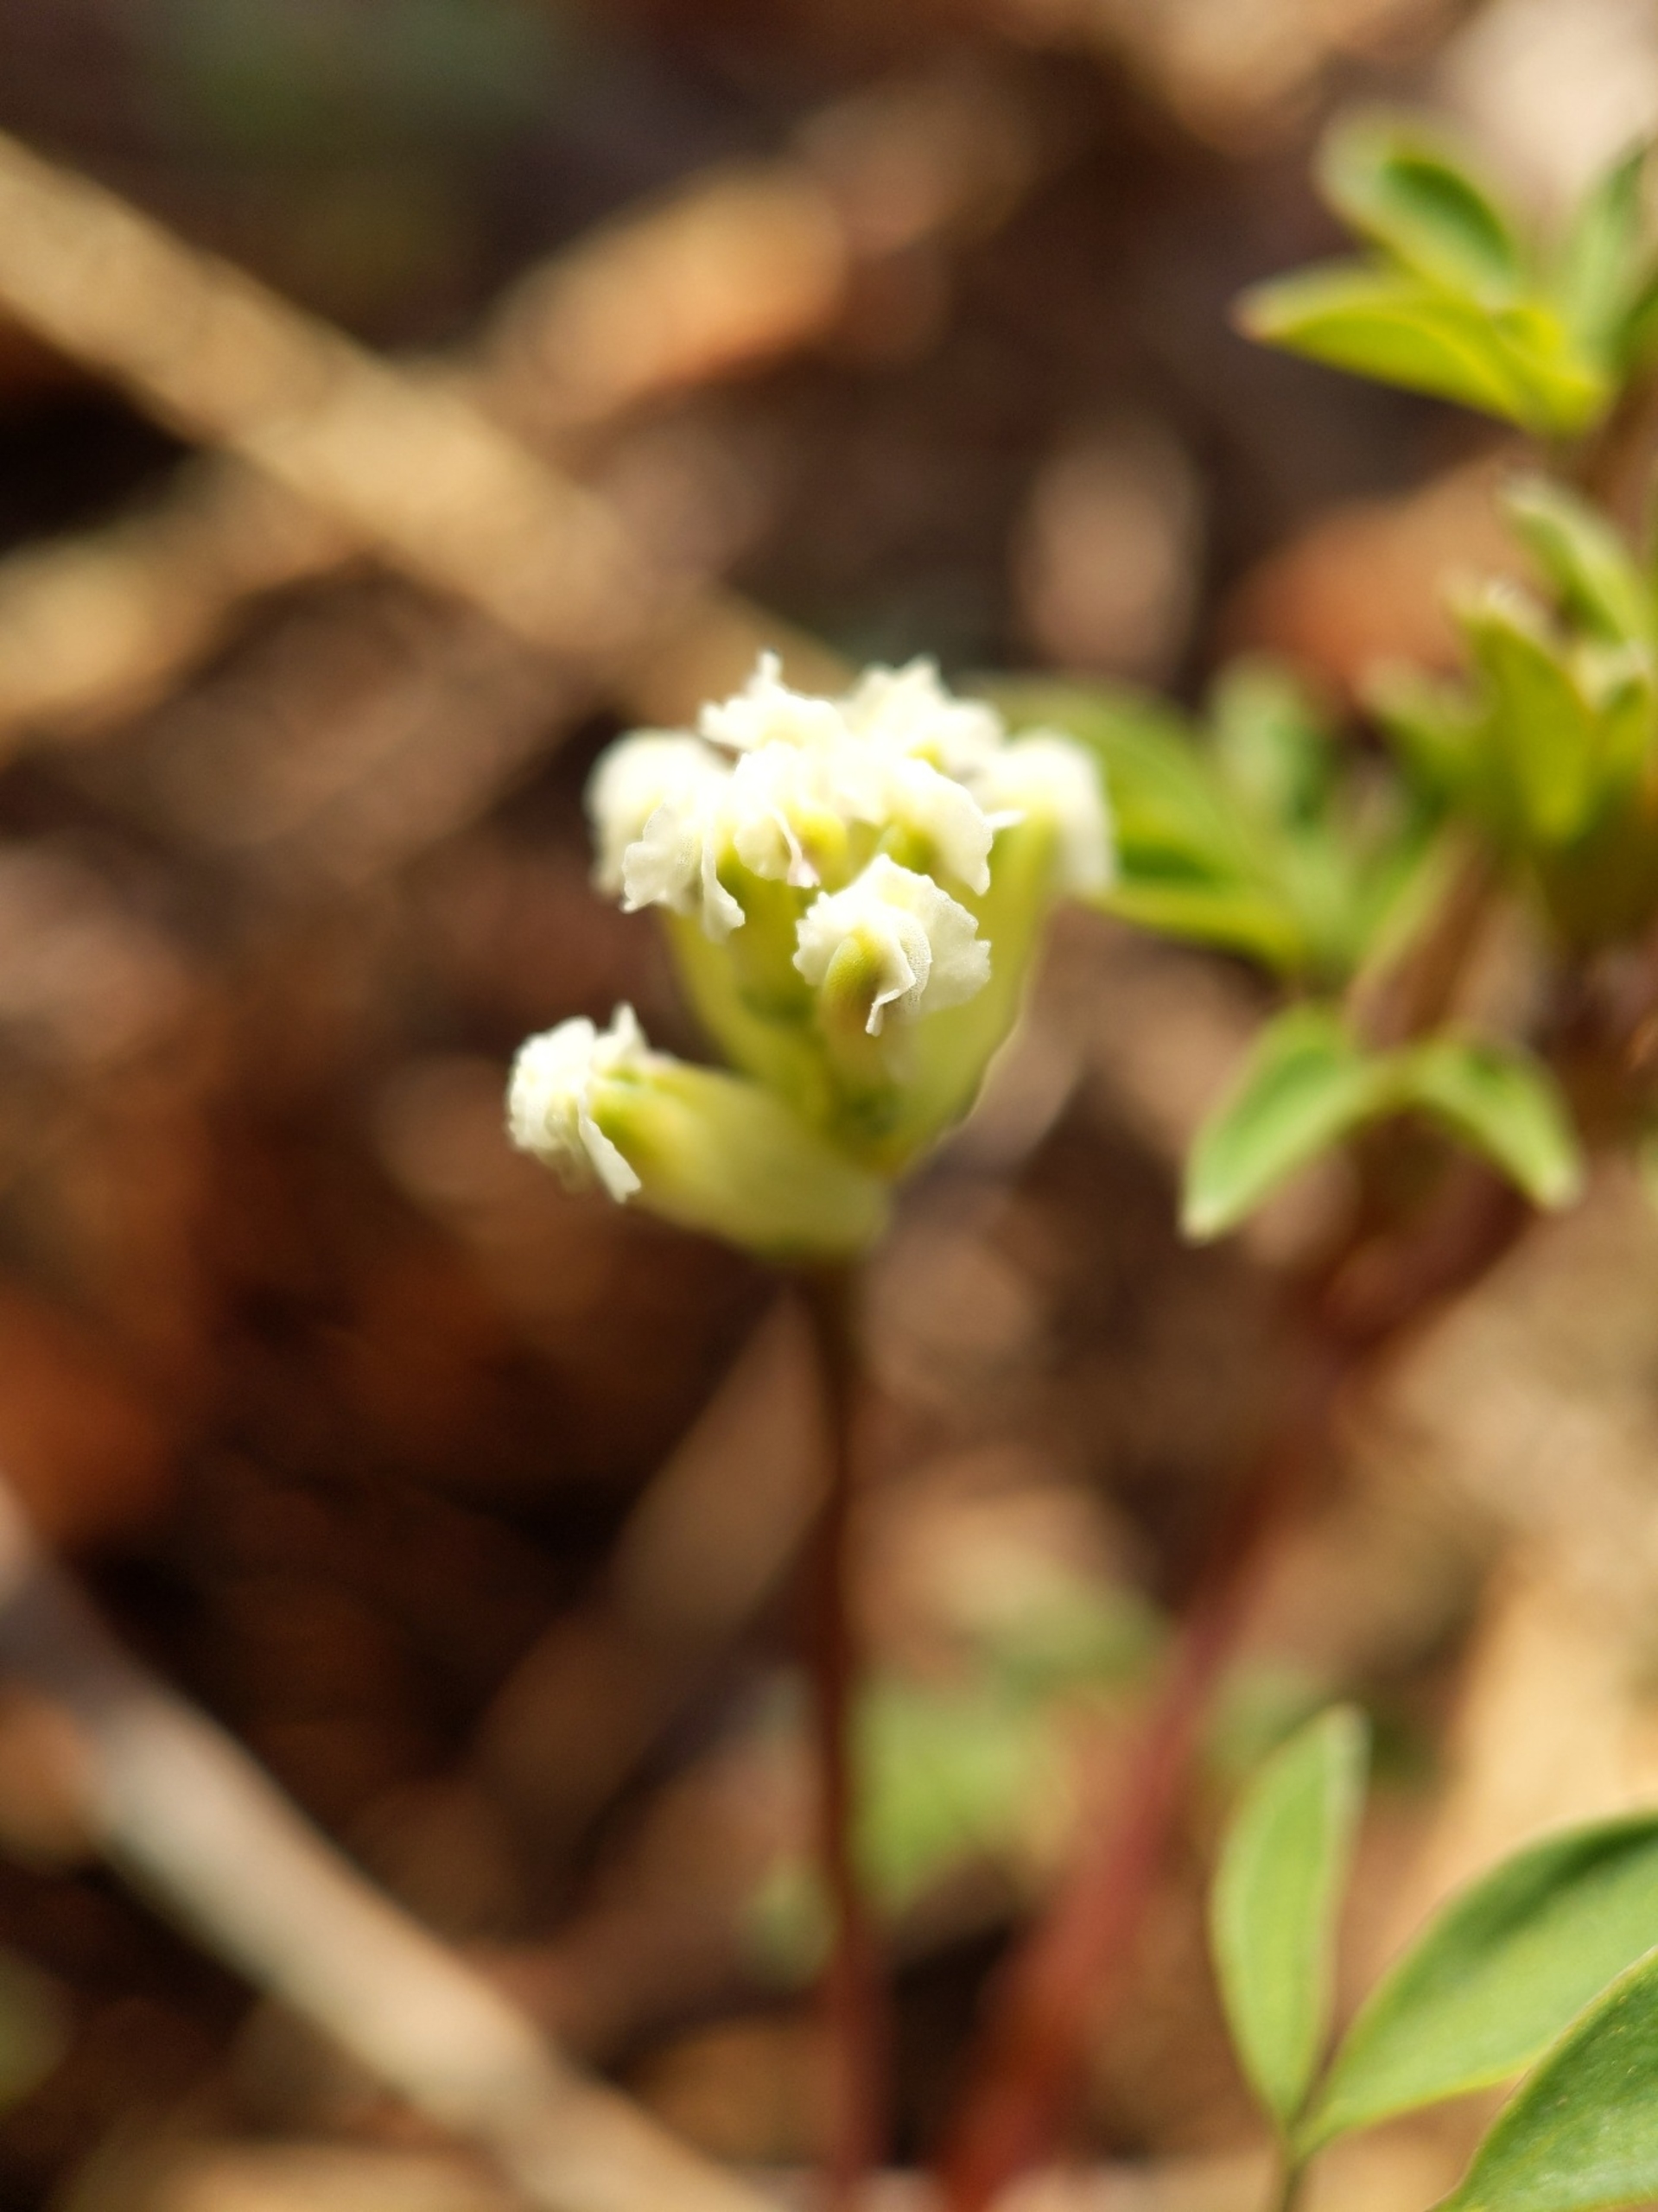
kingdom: Plantae
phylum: Tracheophyta
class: Magnoliopsida
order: Ranunculales
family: Papaveraceae
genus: Ceratocapnos
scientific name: Ceratocapnos claviculata
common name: Klatrende lærkespore
